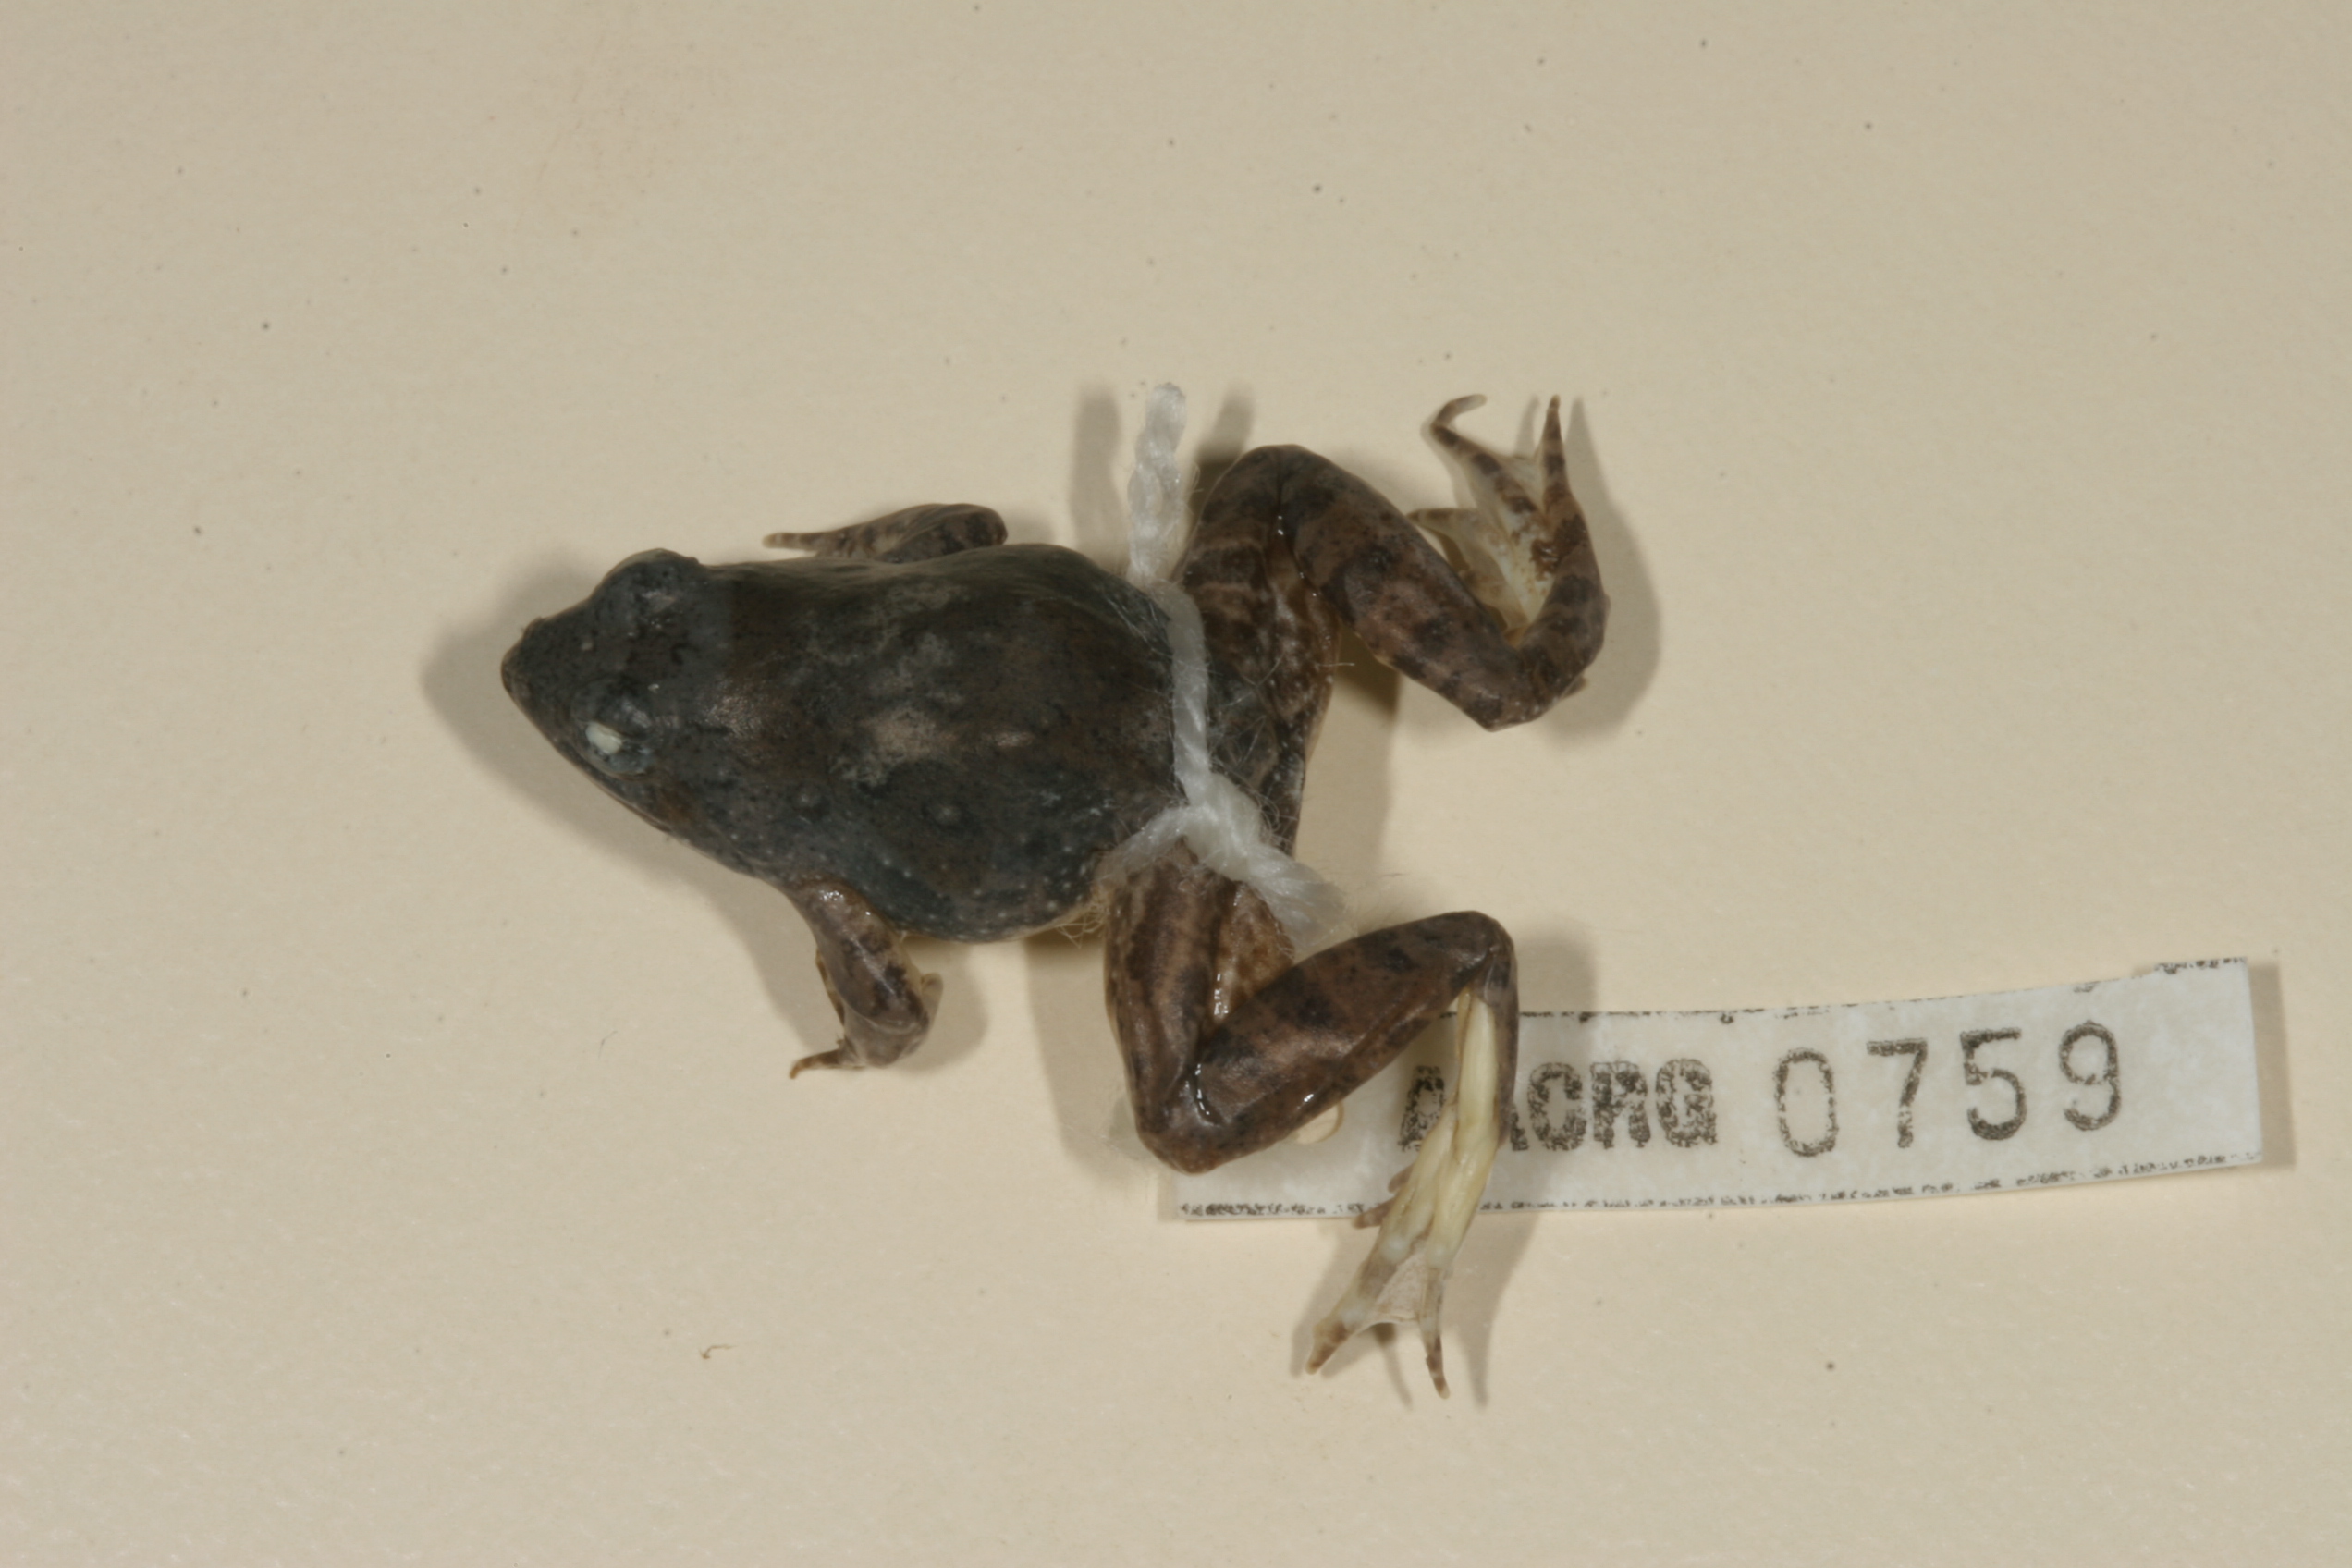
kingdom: Animalia
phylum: Chordata
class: Amphibia
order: Anura
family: Phrynobatrachidae
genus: Phrynobatrachus
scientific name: Phrynobatrachus natalensis
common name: Snoring puddle frog
